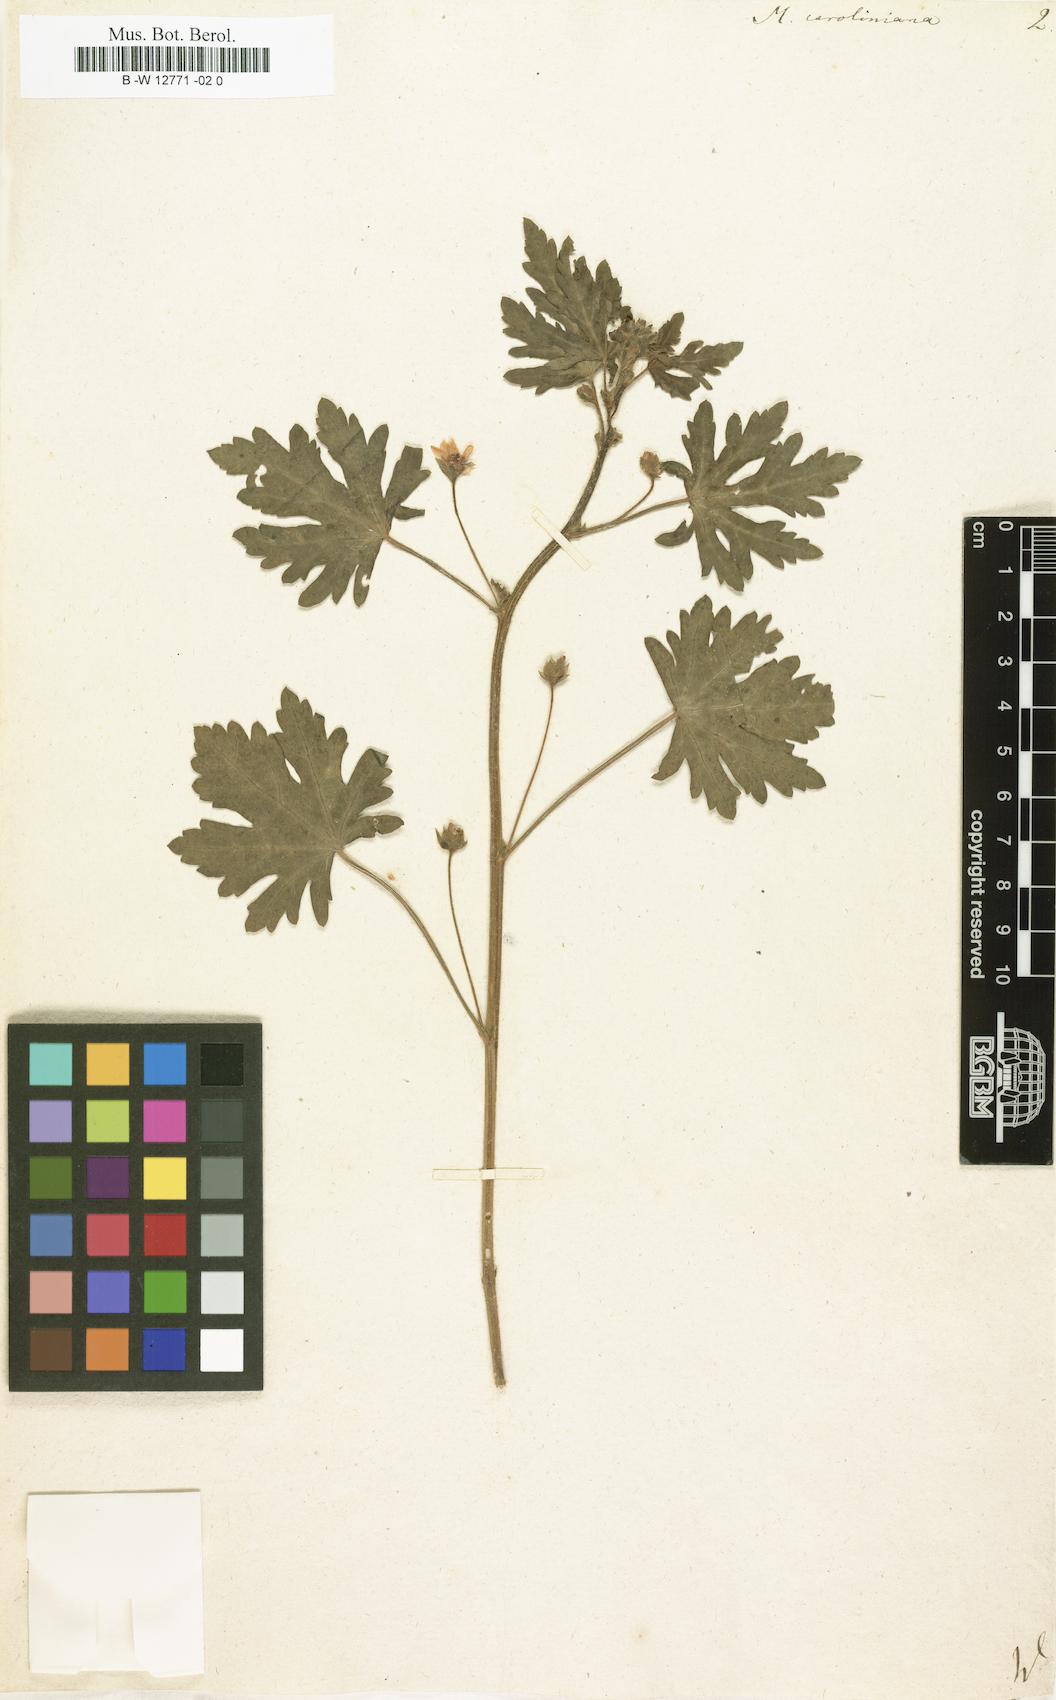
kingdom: Plantae
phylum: Tracheophyta
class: Magnoliopsida
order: Malvales
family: Malvaceae
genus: Modiola
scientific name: Modiola caroliniana
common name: Carolina bristlemallow
